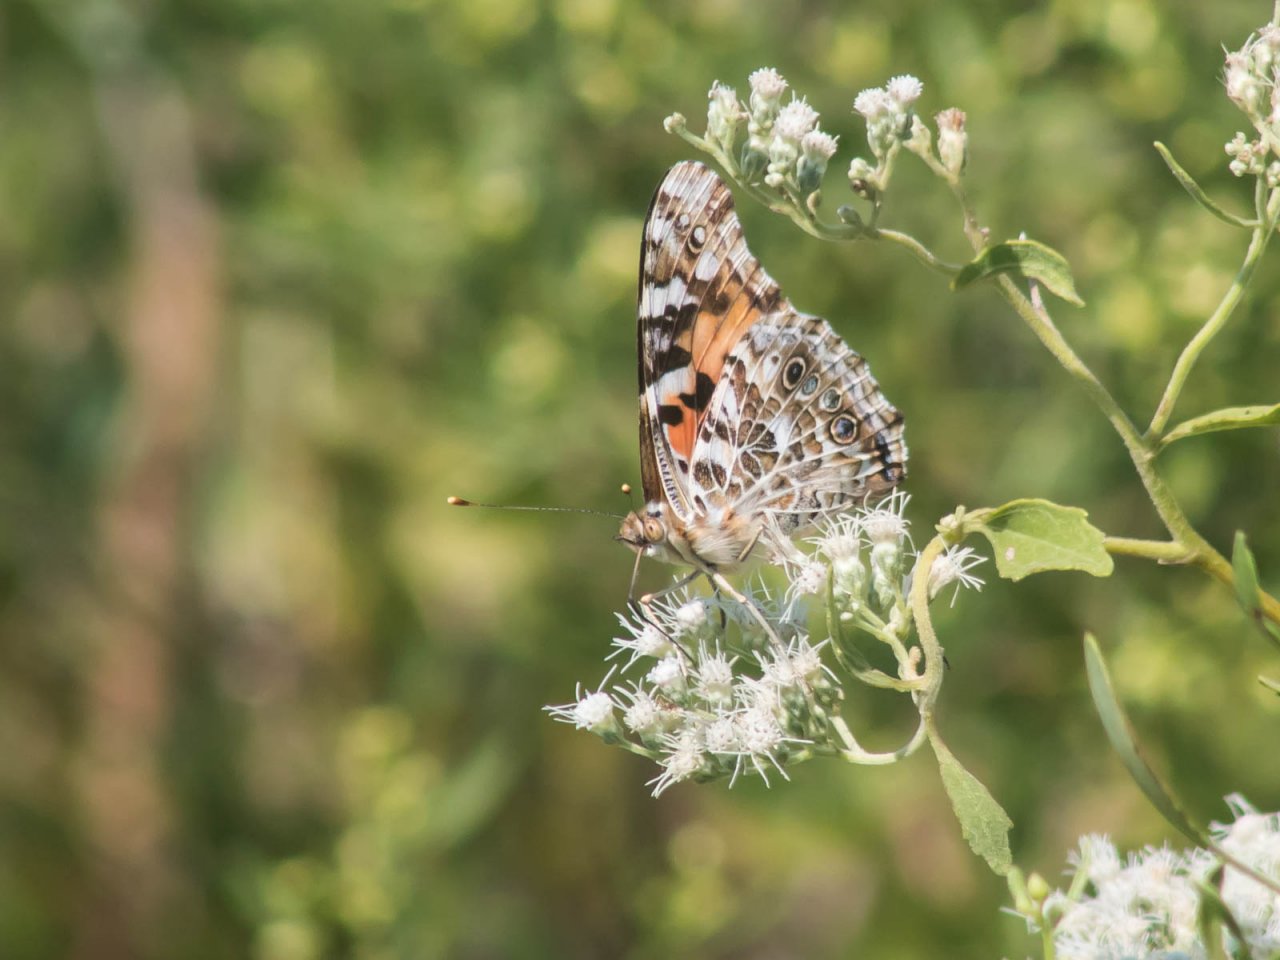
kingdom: Animalia
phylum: Arthropoda
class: Insecta
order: Lepidoptera
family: Nymphalidae
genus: Vanessa
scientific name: Vanessa cardui
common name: Painted Lady
